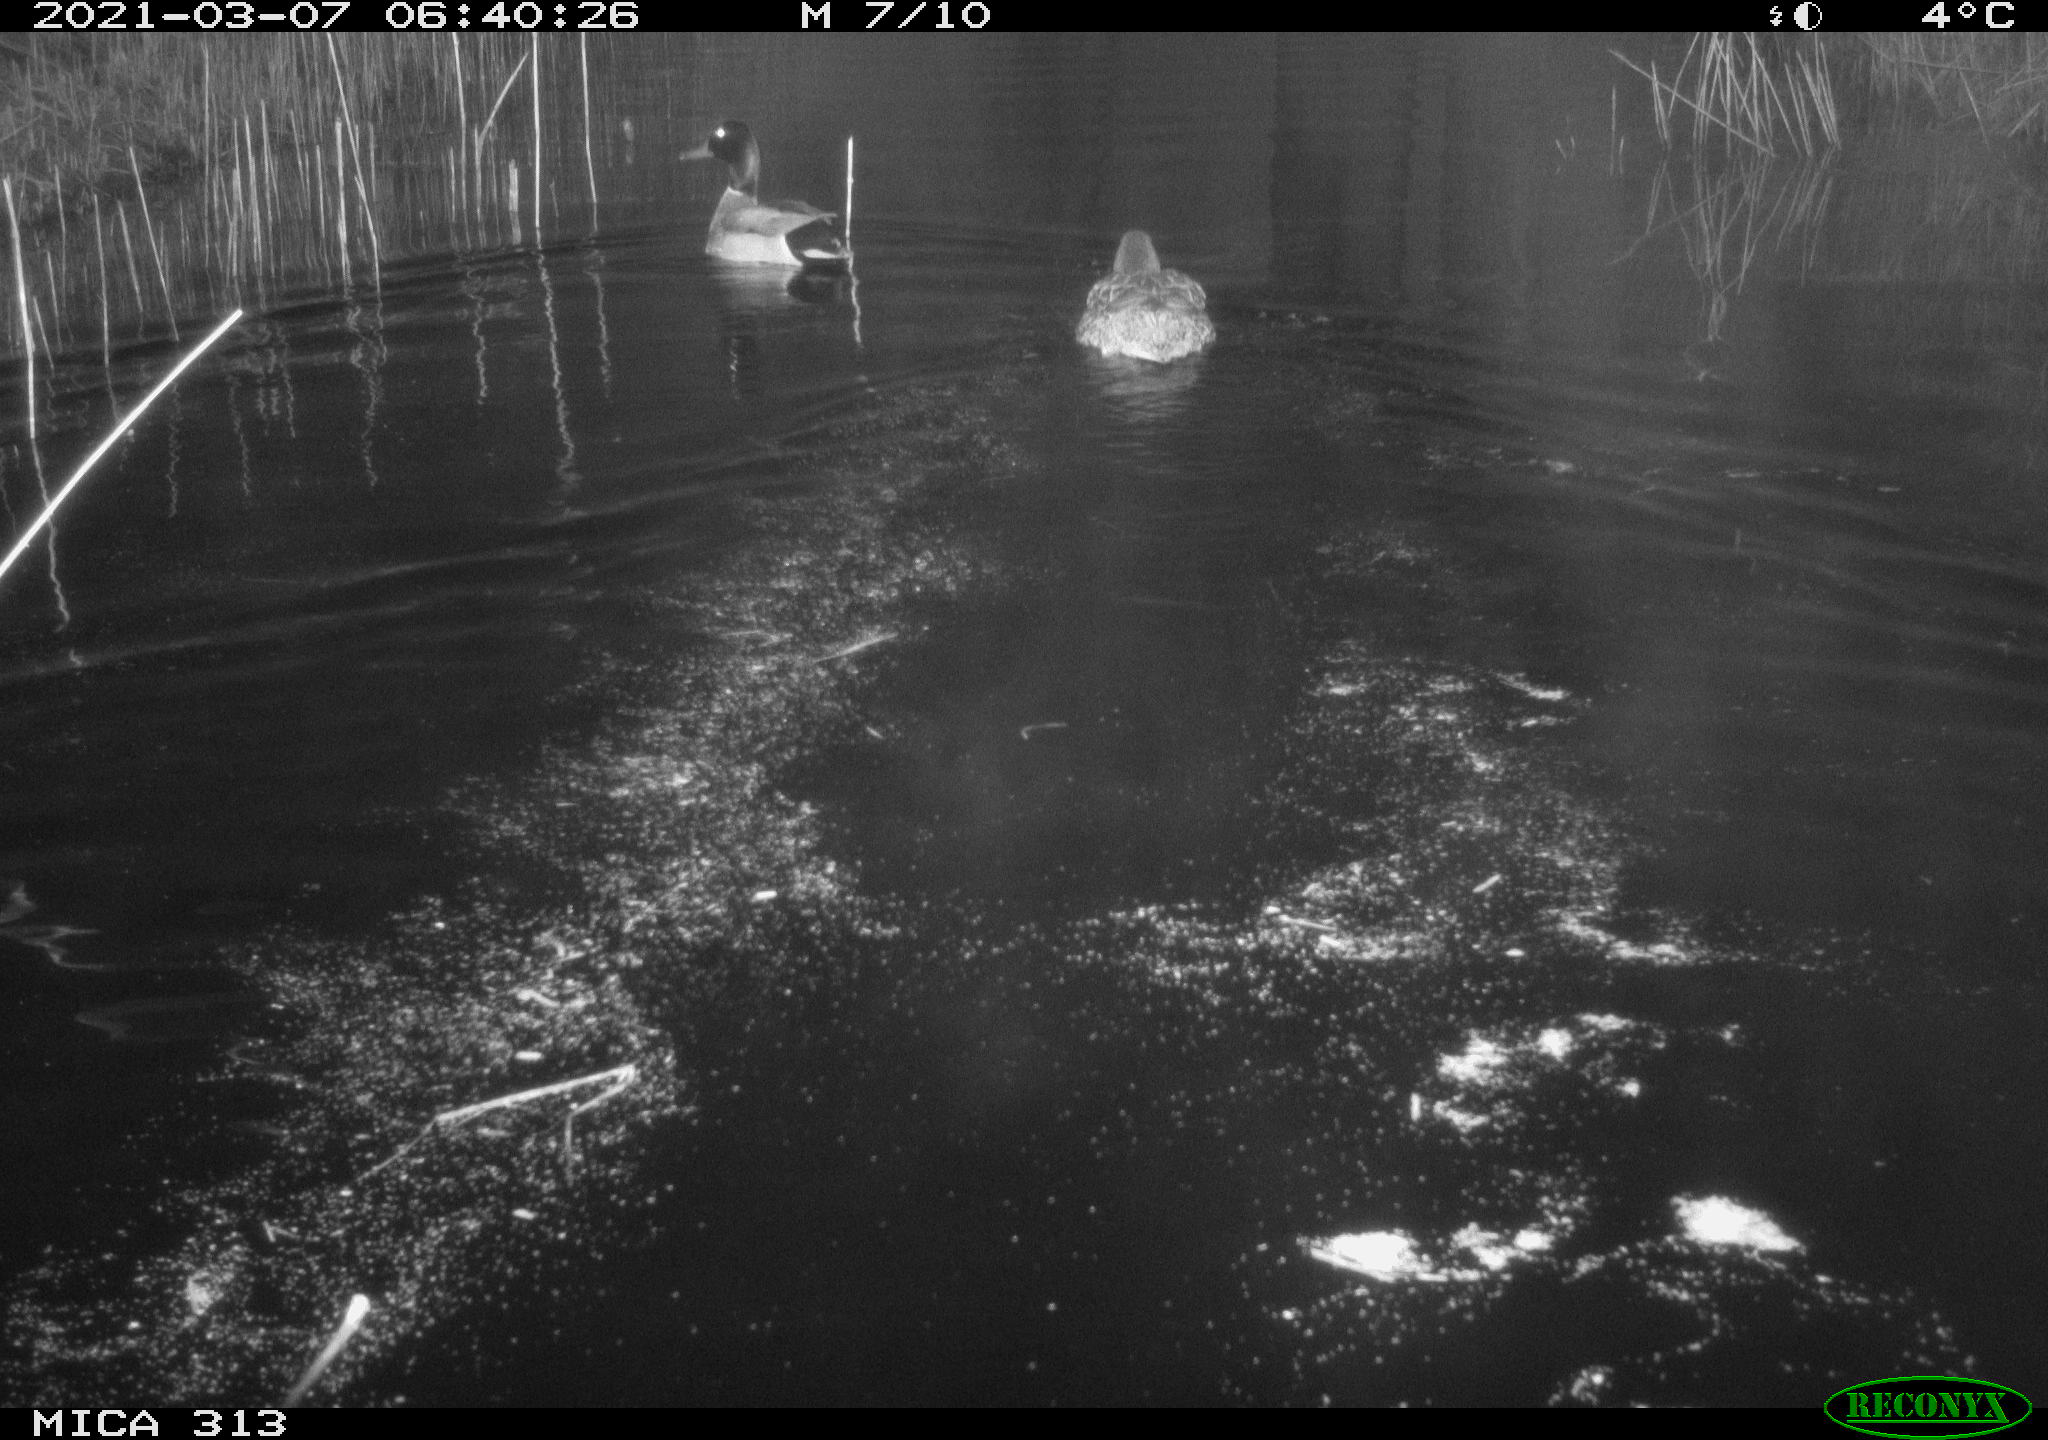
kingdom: Animalia
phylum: Chordata
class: Aves
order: Anseriformes
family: Anatidae
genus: Anas
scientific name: Anas platyrhynchos
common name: Mallard
